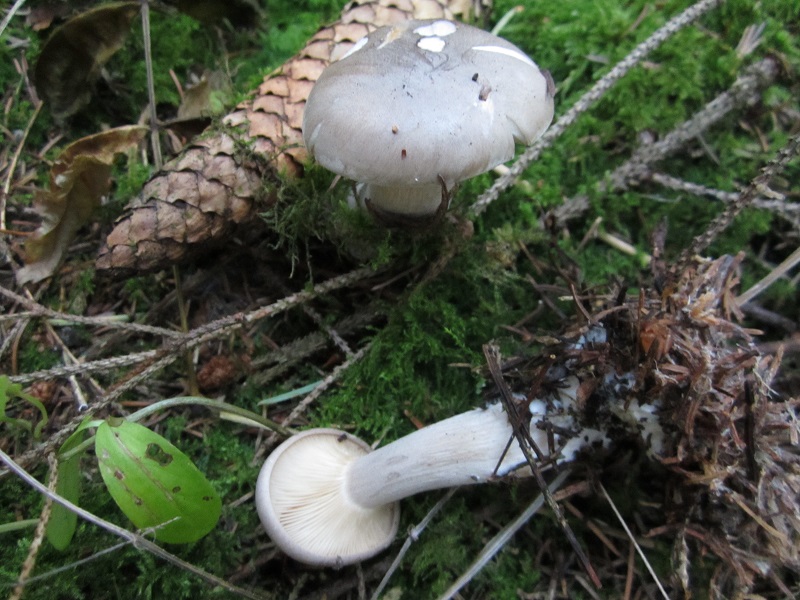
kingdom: Fungi
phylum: Basidiomycota
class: Agaricomycetes
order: Agaricales
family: Tricholomataceae
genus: Clitocybe
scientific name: Clitocybe nebularis
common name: tåge-tragthat
